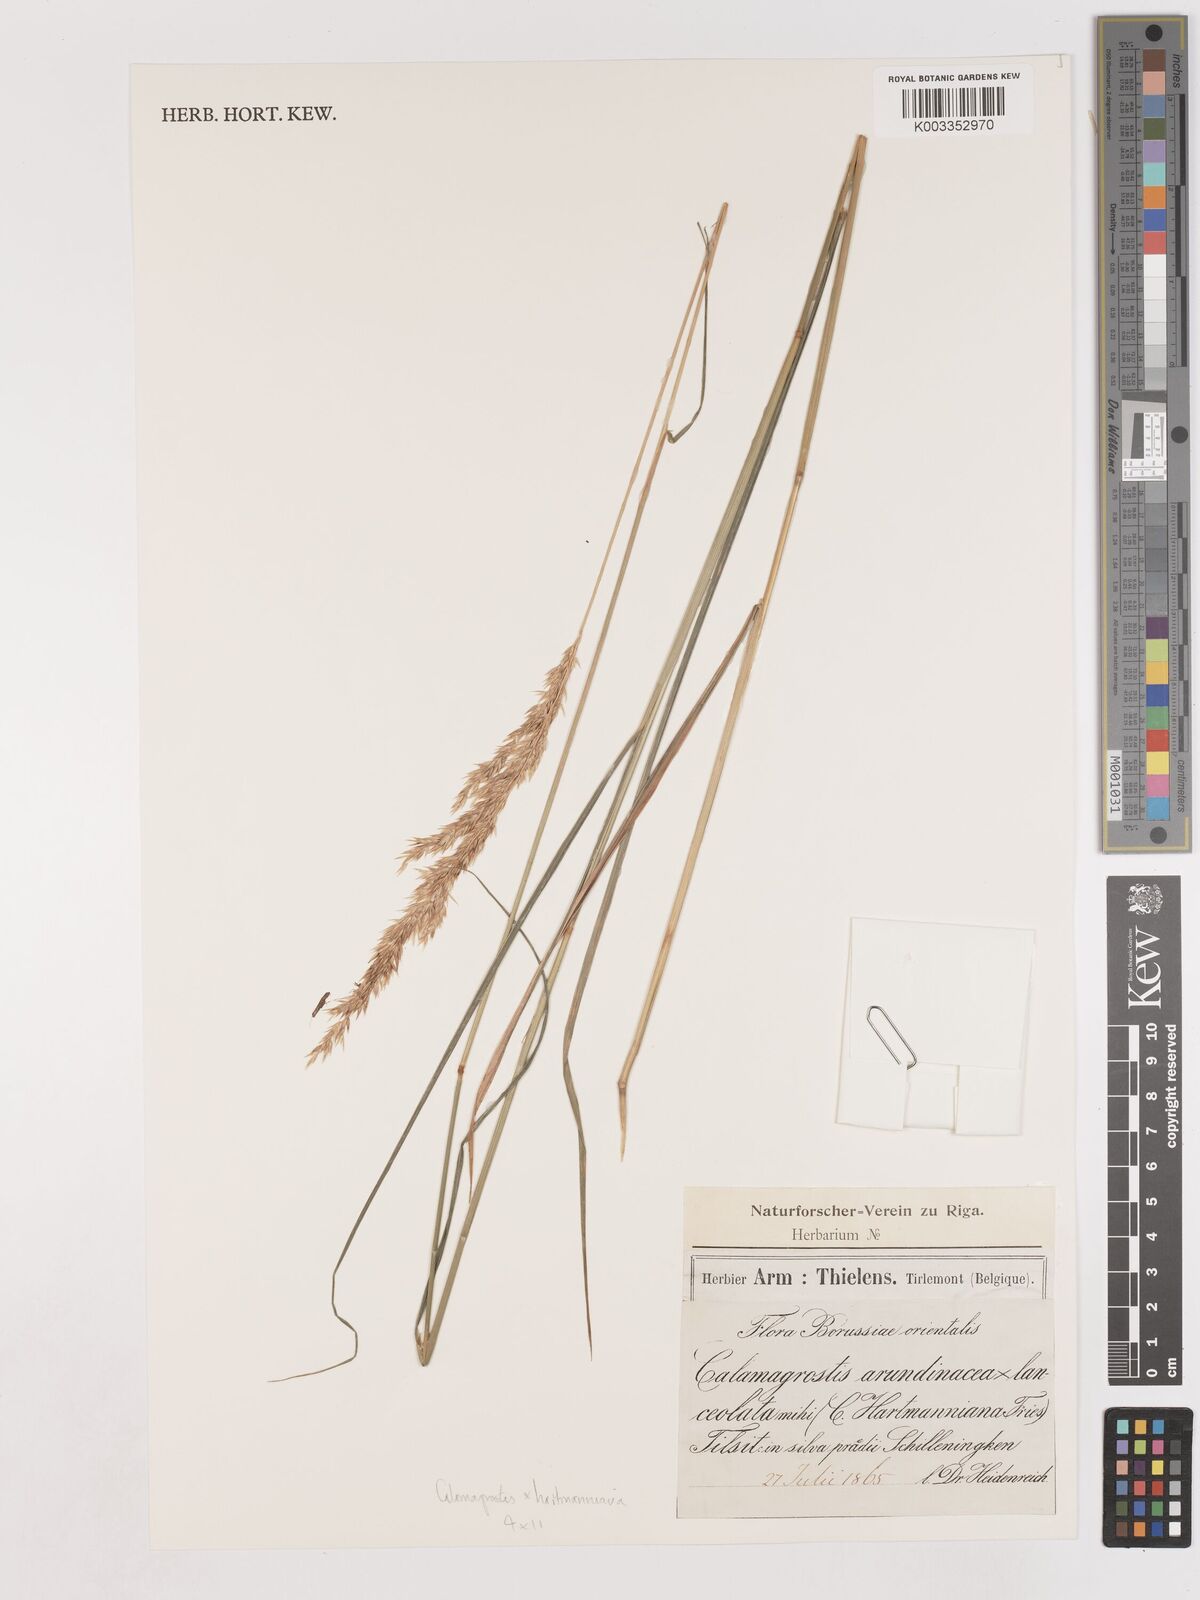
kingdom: Plantae
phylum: Tracheophyta
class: Liliopsida
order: Poales
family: Poaceae
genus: Calamagrostis
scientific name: Calamagrostis canescens
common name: Purple small-reed
